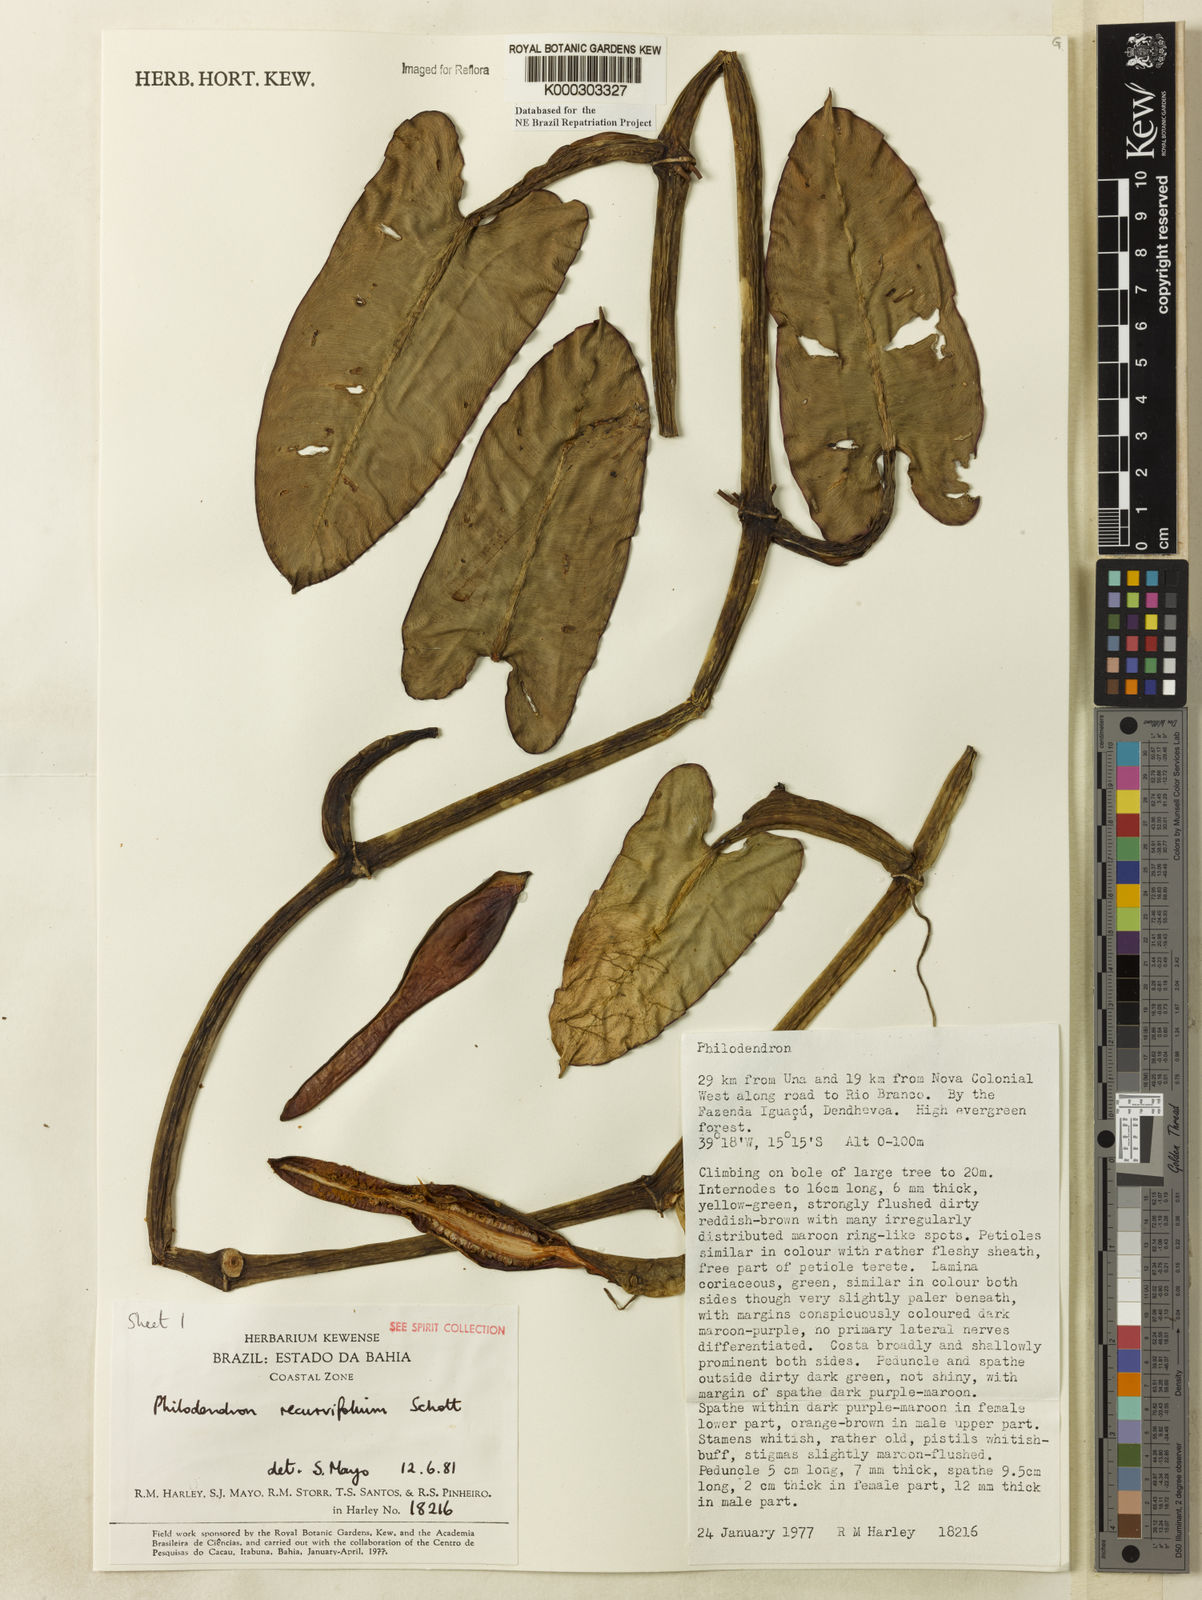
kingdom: Plantae
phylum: Tracheophyta
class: Liliopsida
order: Alismatales
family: Araceae
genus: Philodendron
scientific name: Philodendron recurvifolium
